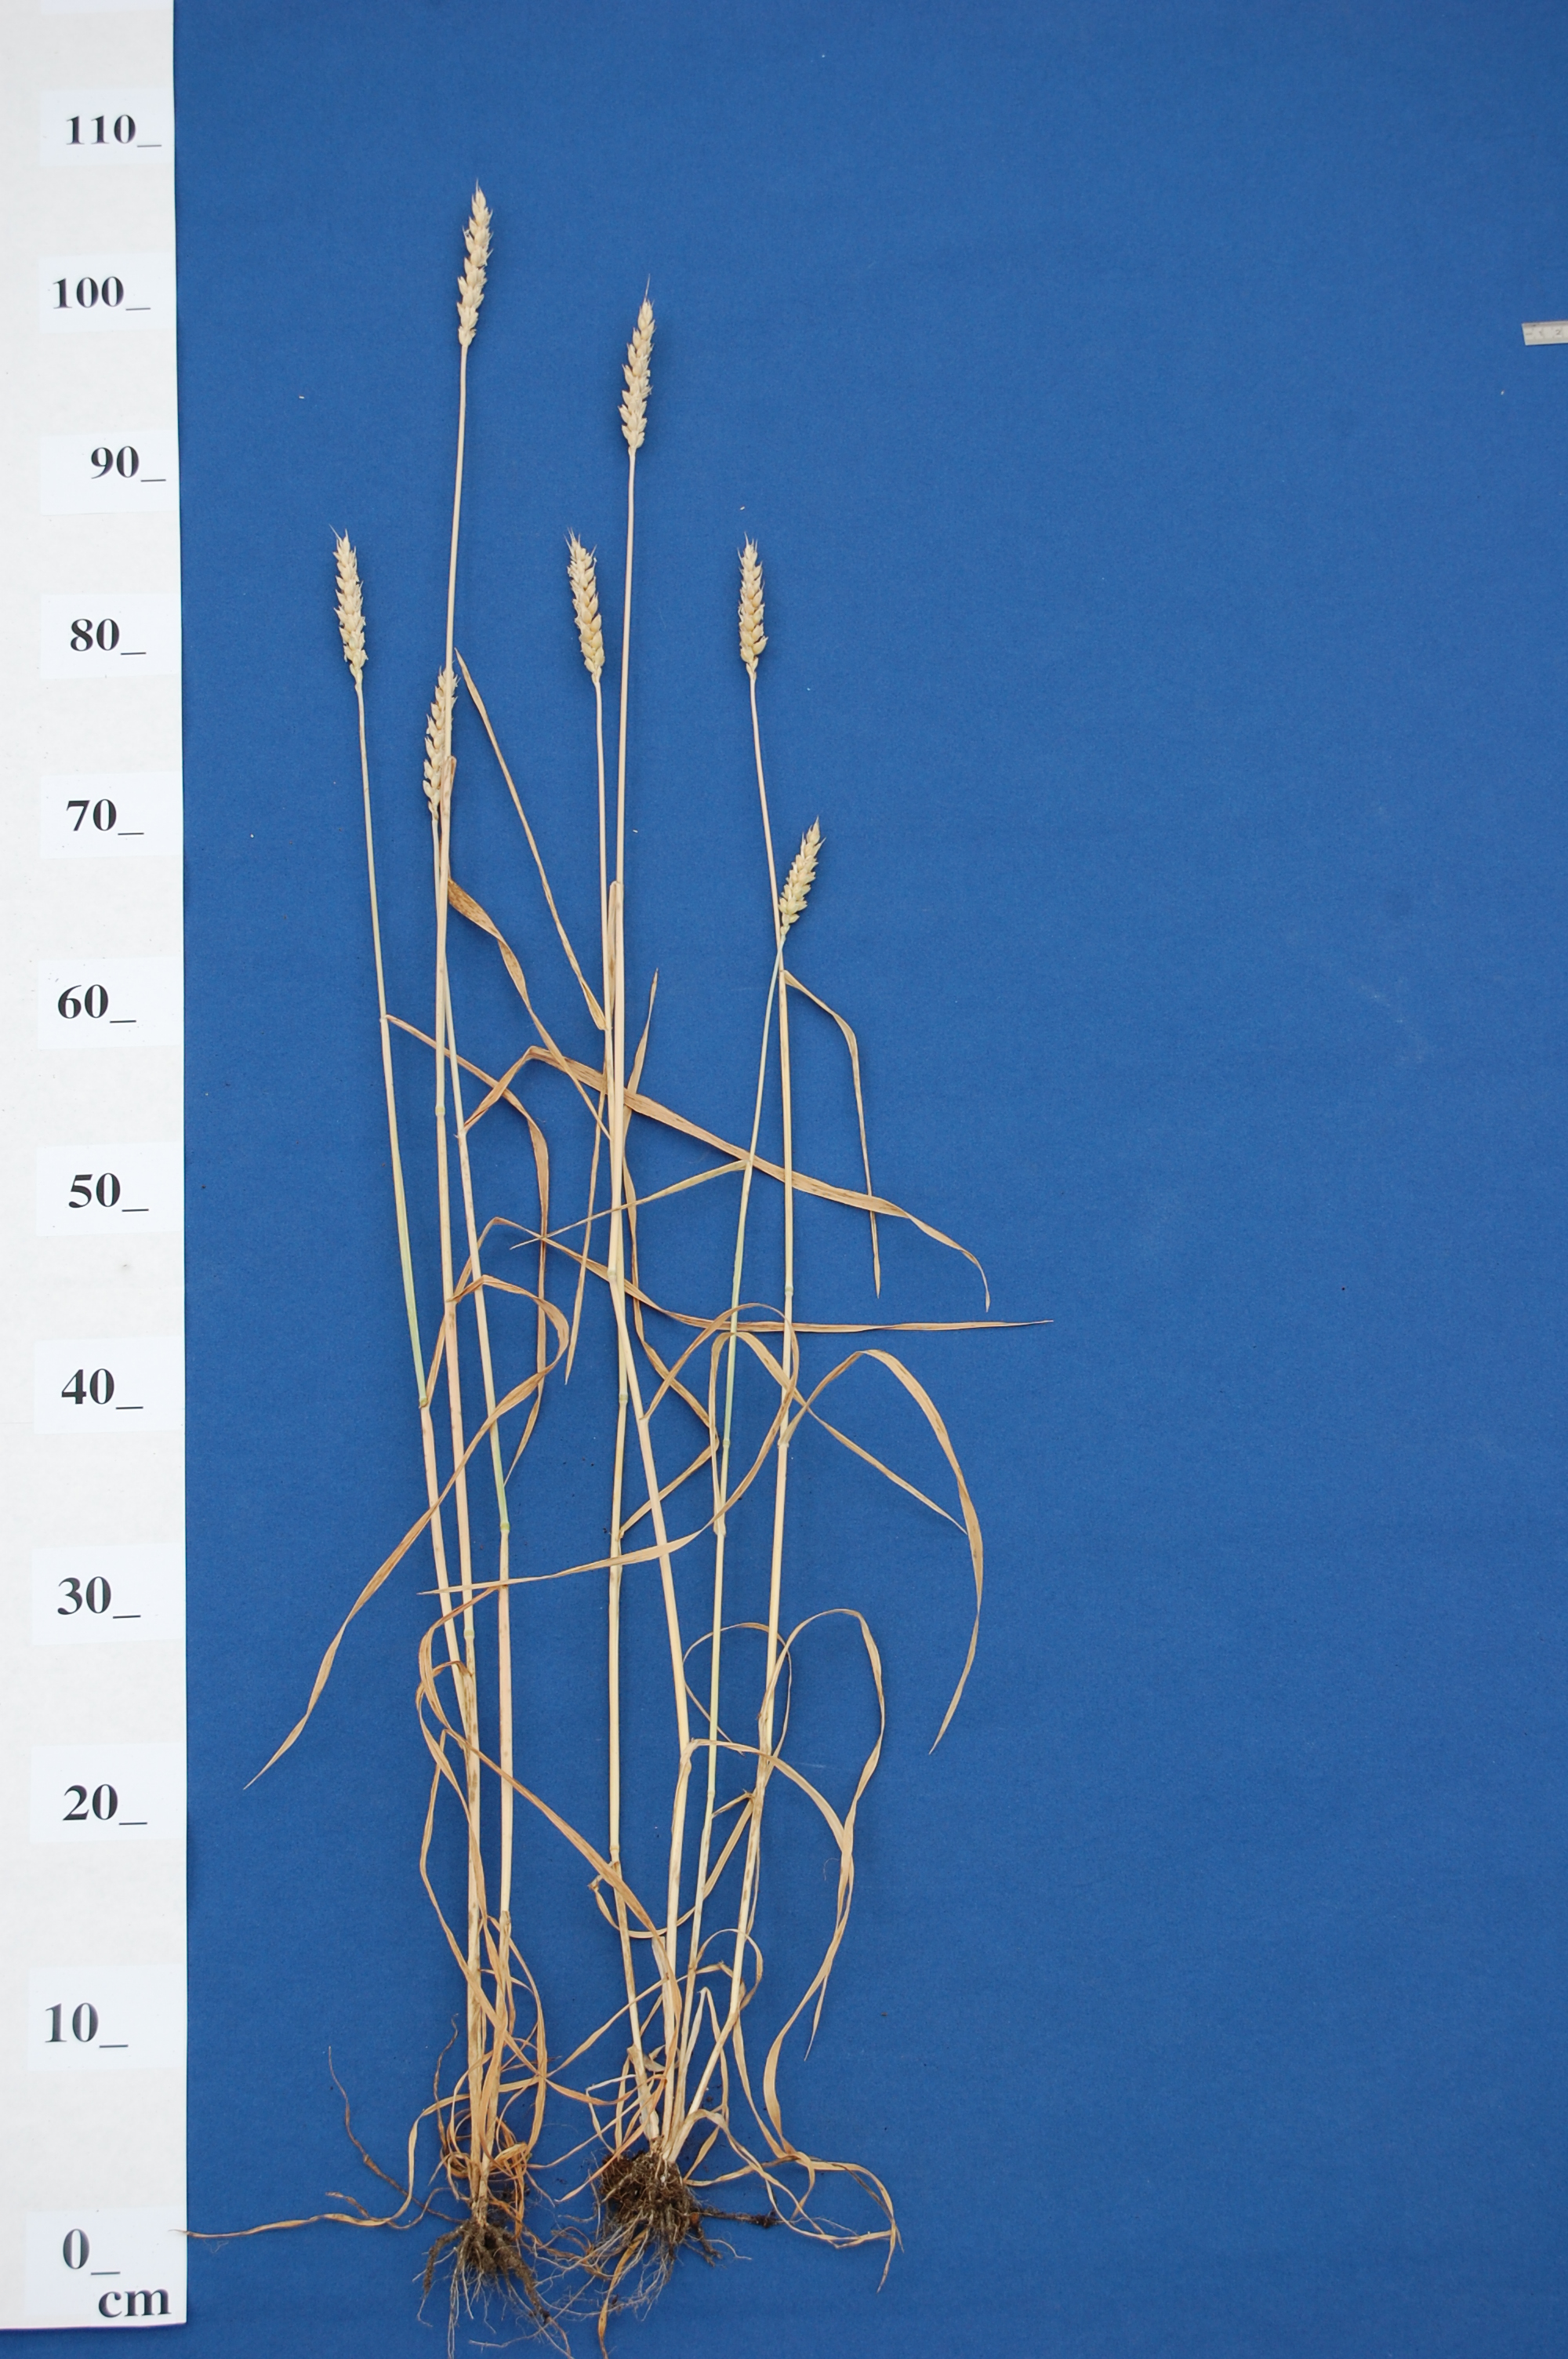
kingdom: Plantae
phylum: Tracheophyta
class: Liliopsida
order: Poales
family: Poaceae
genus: Triticum
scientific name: Triticum aestivum
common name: Common wheat
